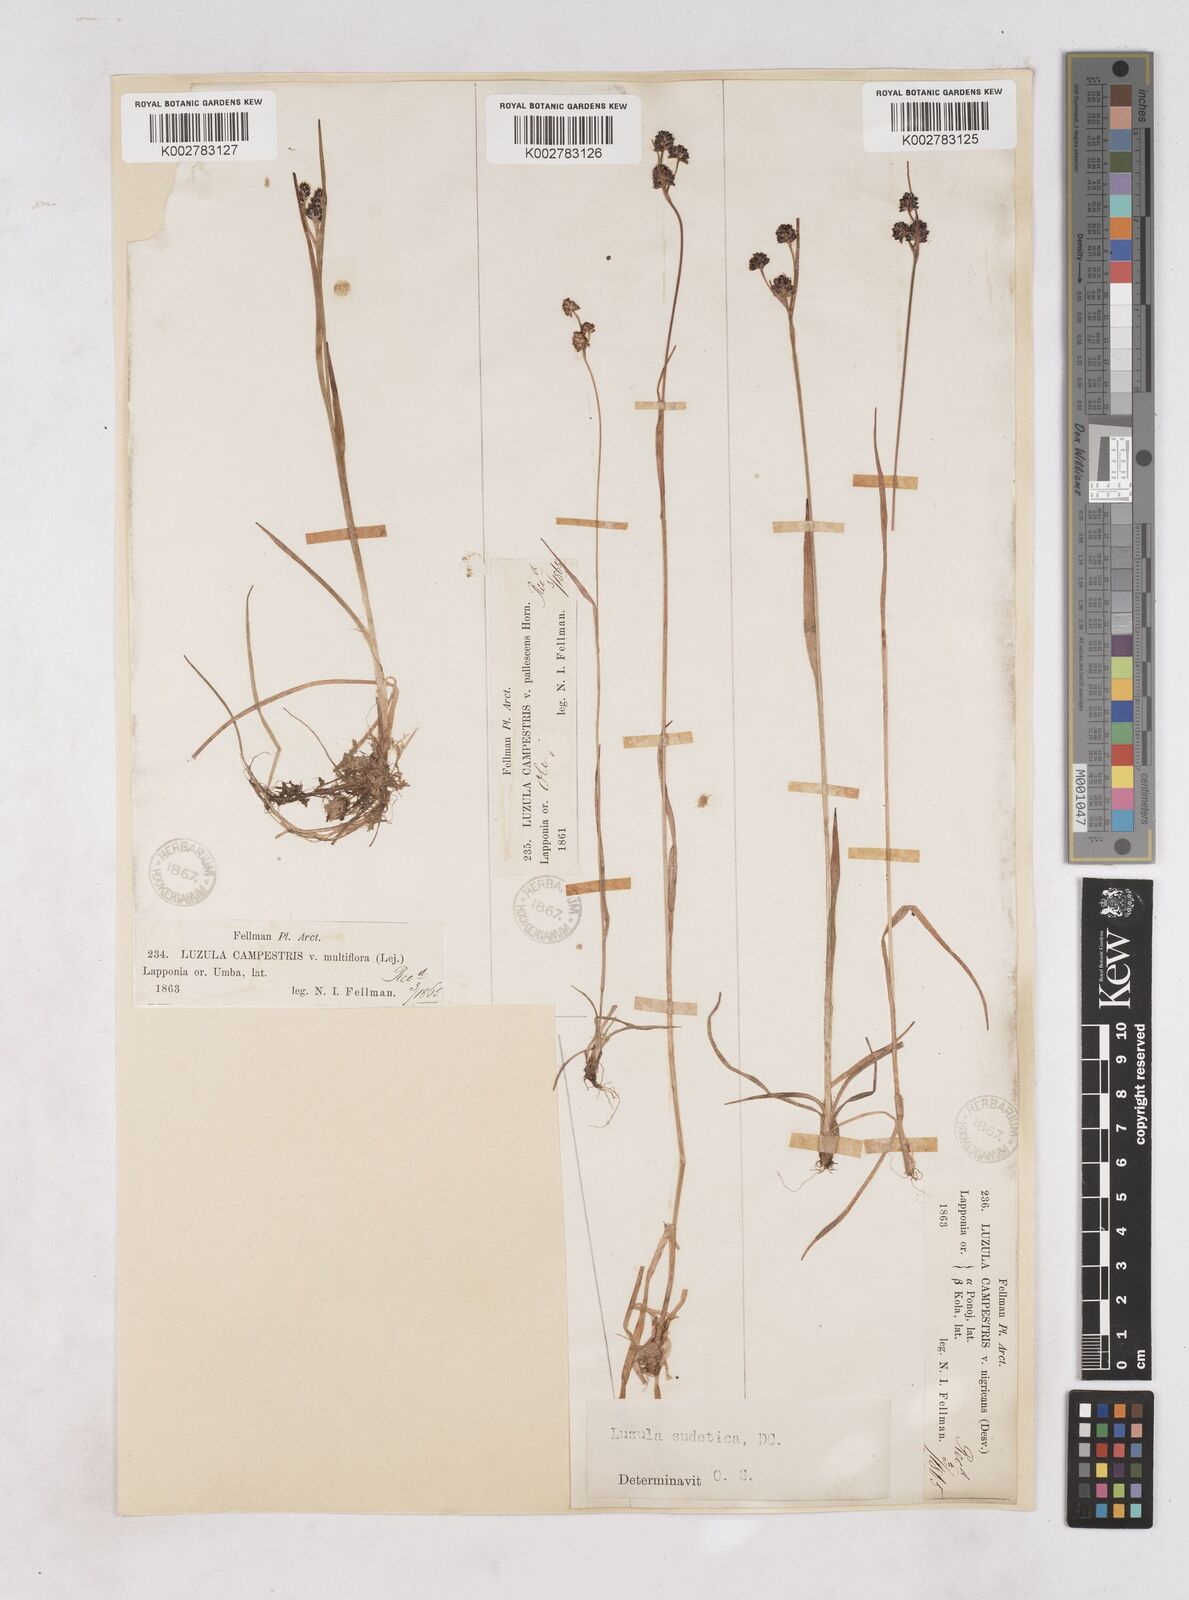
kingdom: Plantae
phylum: Tracheophyta
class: Liliopsida
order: Poales
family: Juncaceae
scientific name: Juncaceae
